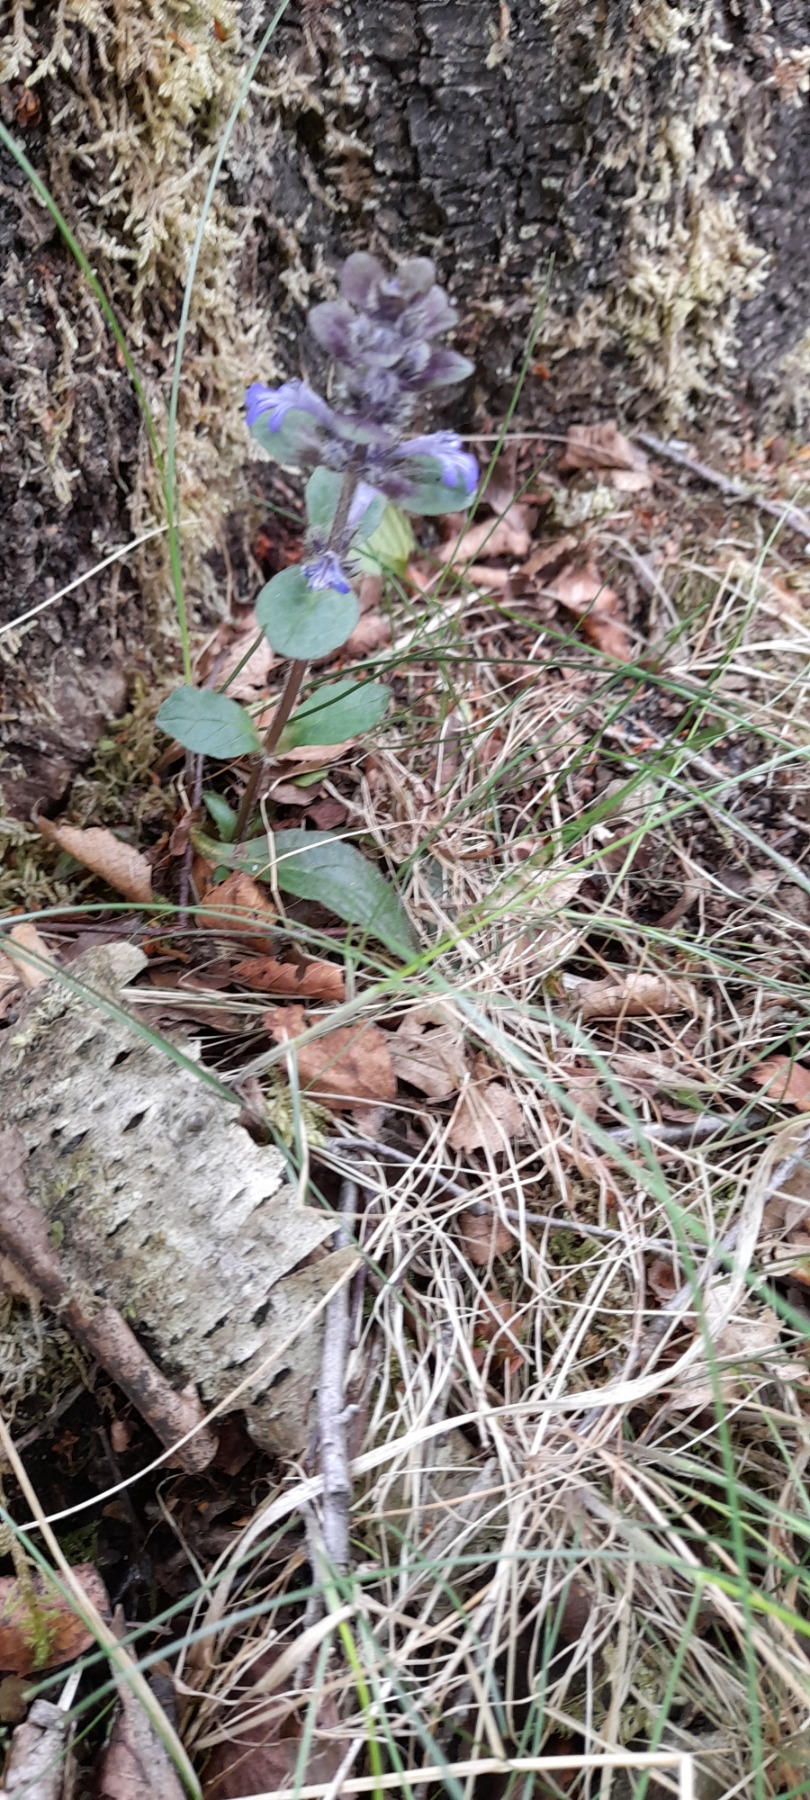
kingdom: Plantae
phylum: Tracheophyta
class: Magnoliopsida
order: Lamiales
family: Lamiaceae
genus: Ajuga
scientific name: Ajuga reptans
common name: Krybende læbeløs
